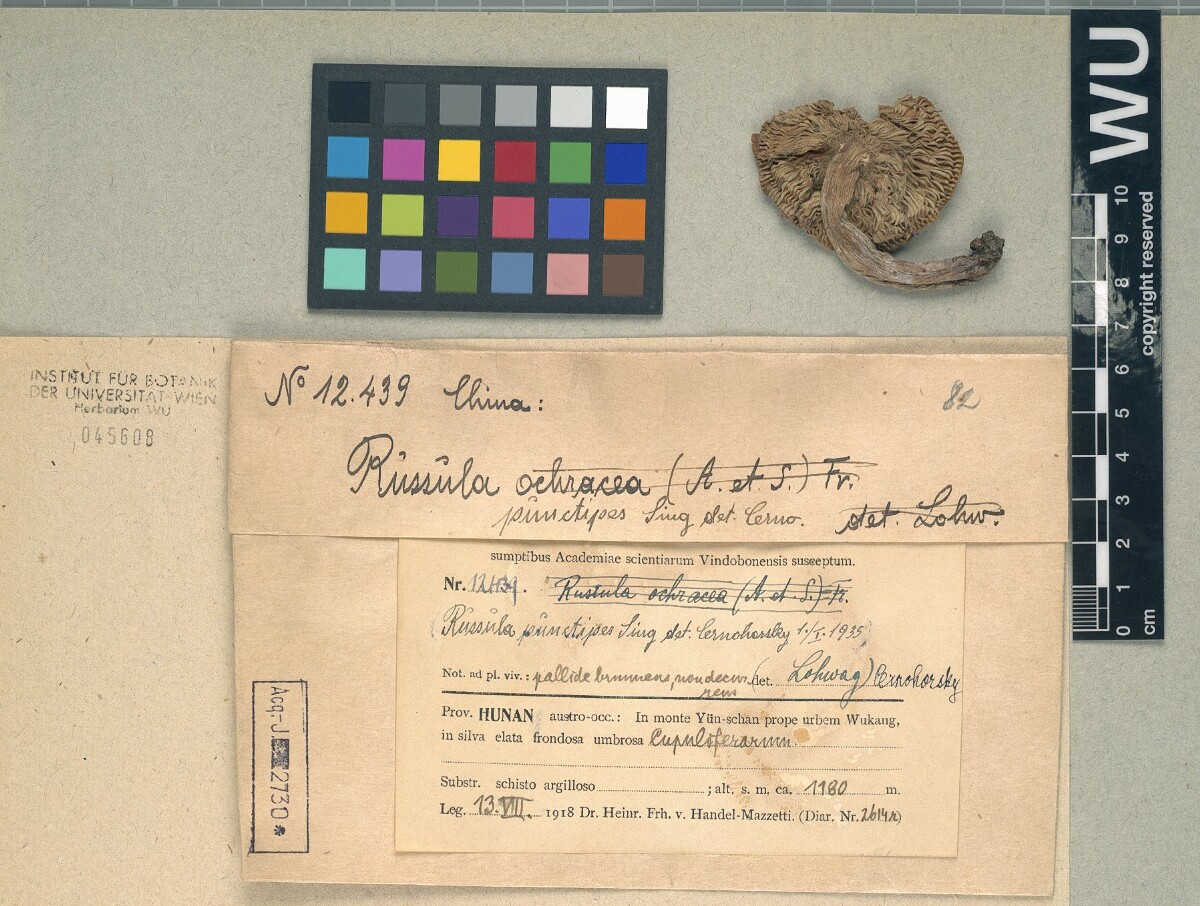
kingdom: Fungi
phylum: Basidiomycota
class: Agaricomycetes
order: Russulales
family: Russulaceae
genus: Russula
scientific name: Russula punctipes
